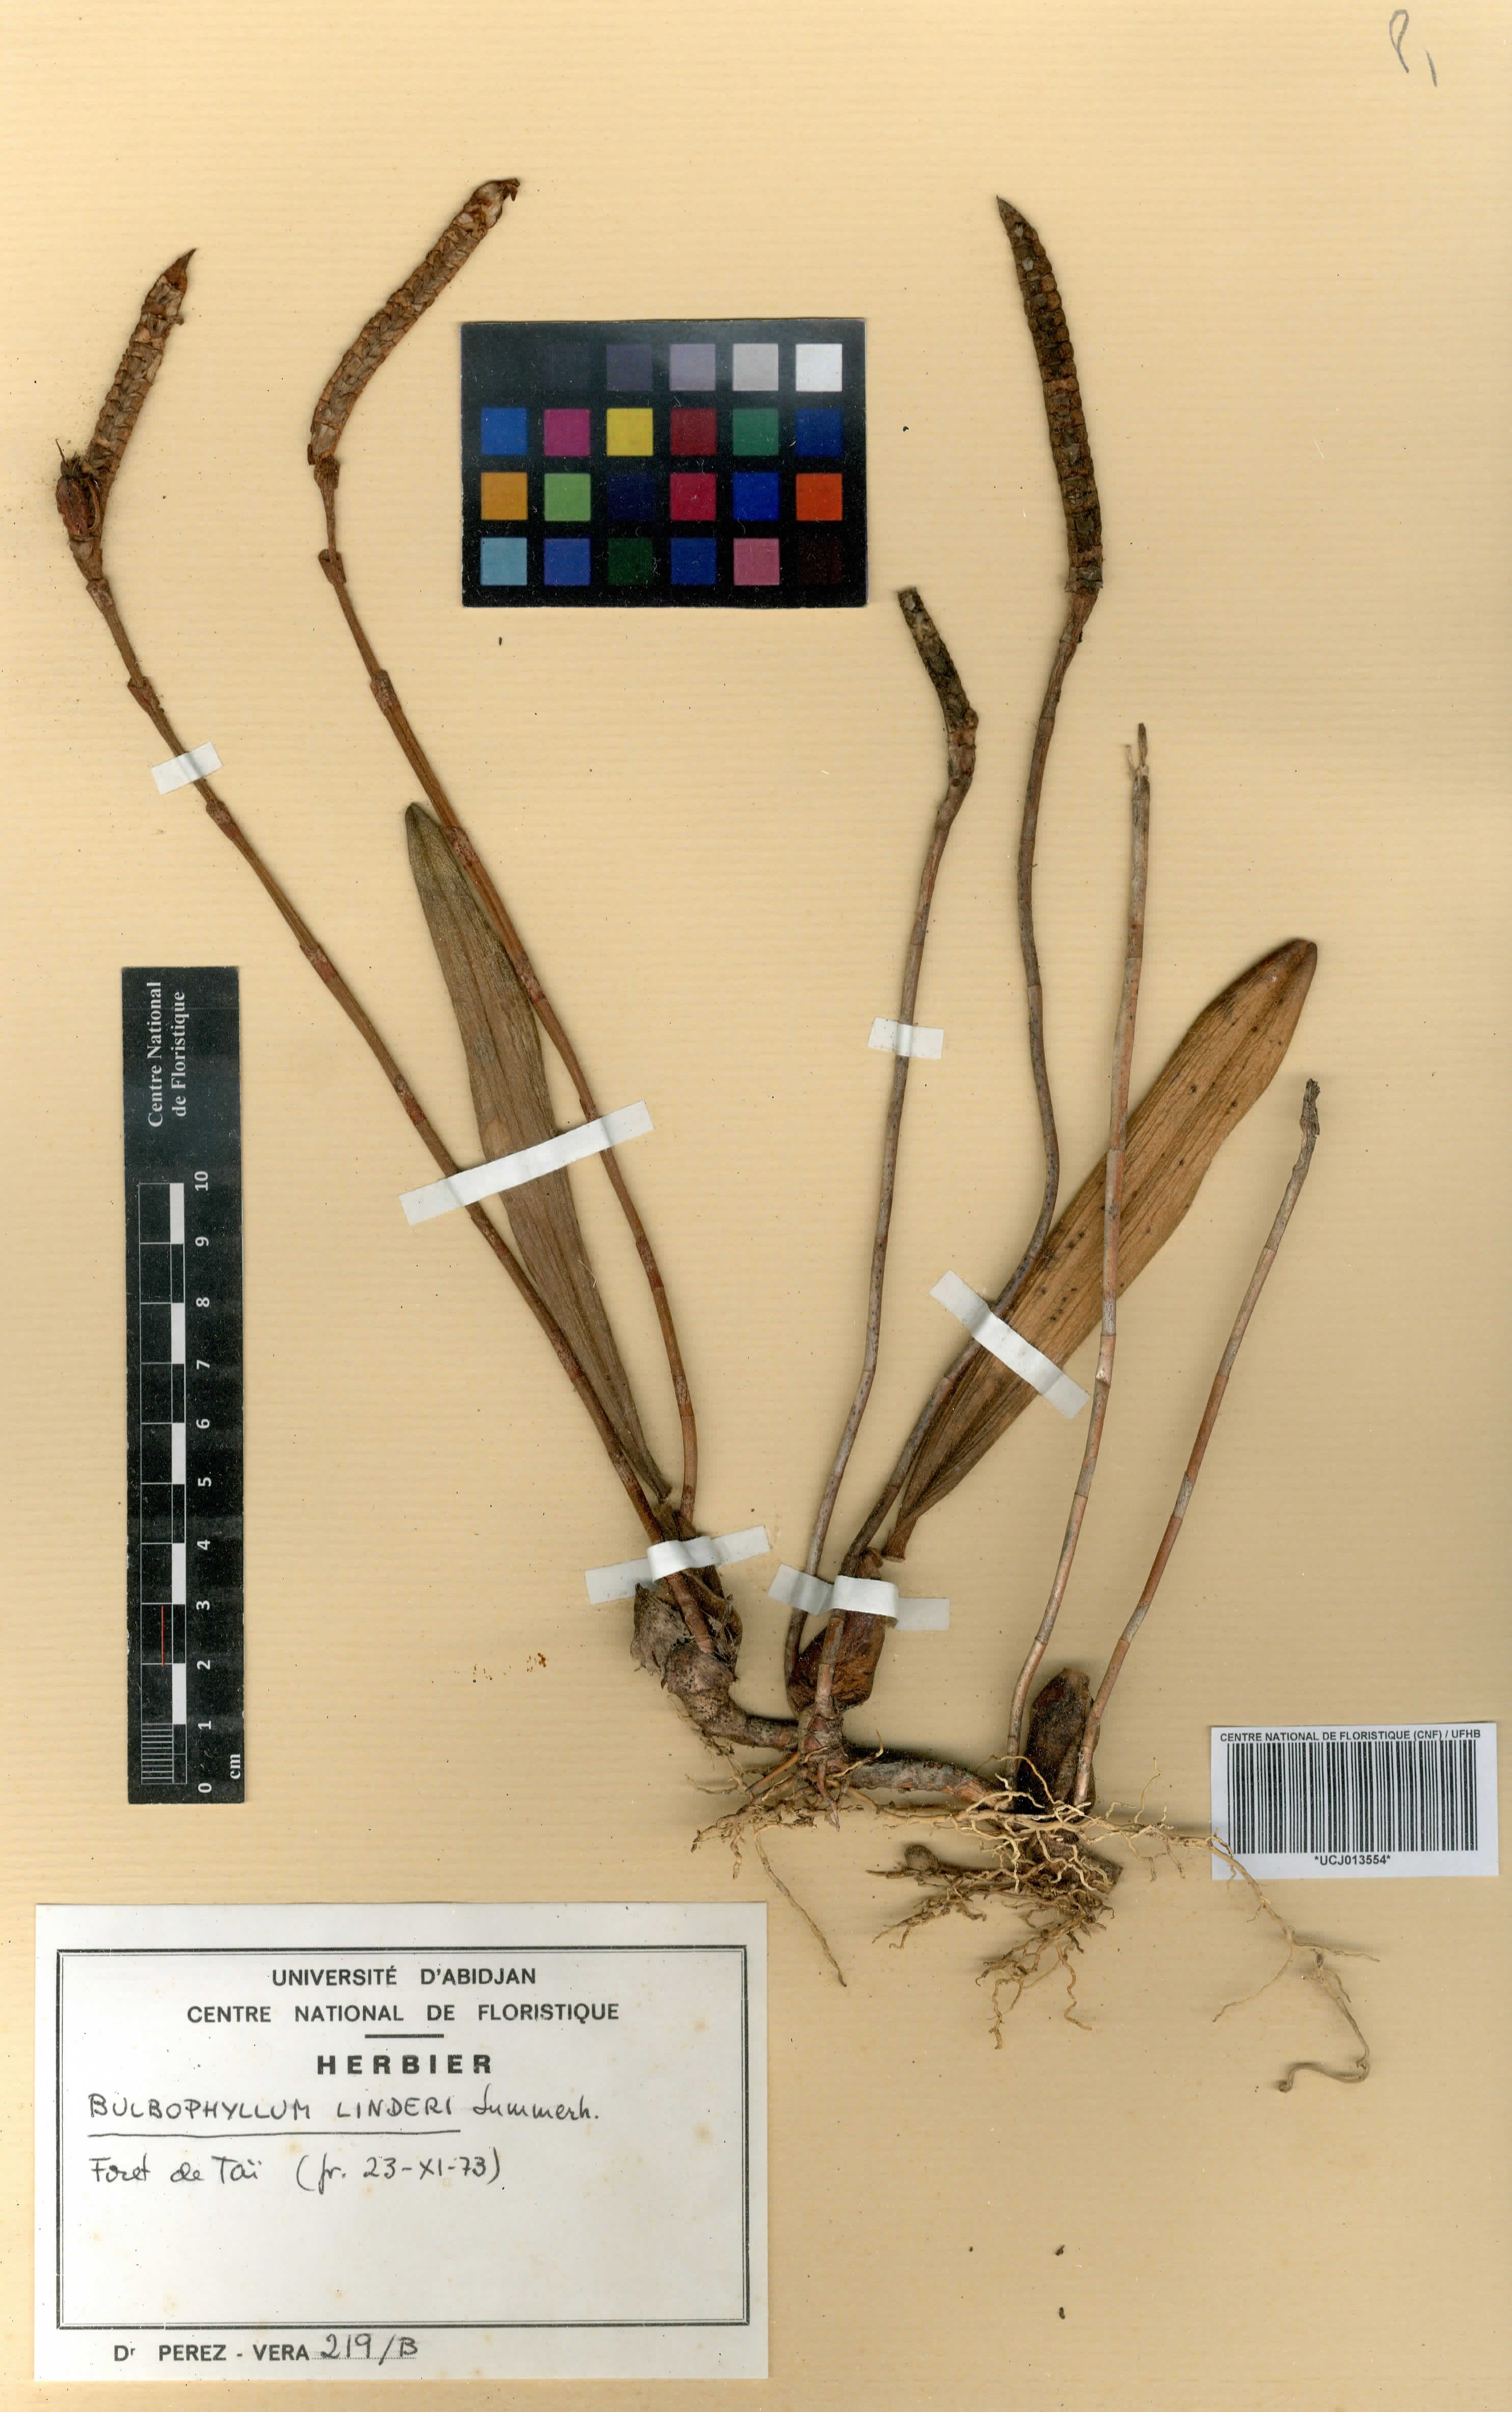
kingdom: Plantae
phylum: Tracheophyta
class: Liliopsida
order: Asparagales
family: Orchidaceae
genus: Bulbophyllum
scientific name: Bulbophyllum leucorhachis
